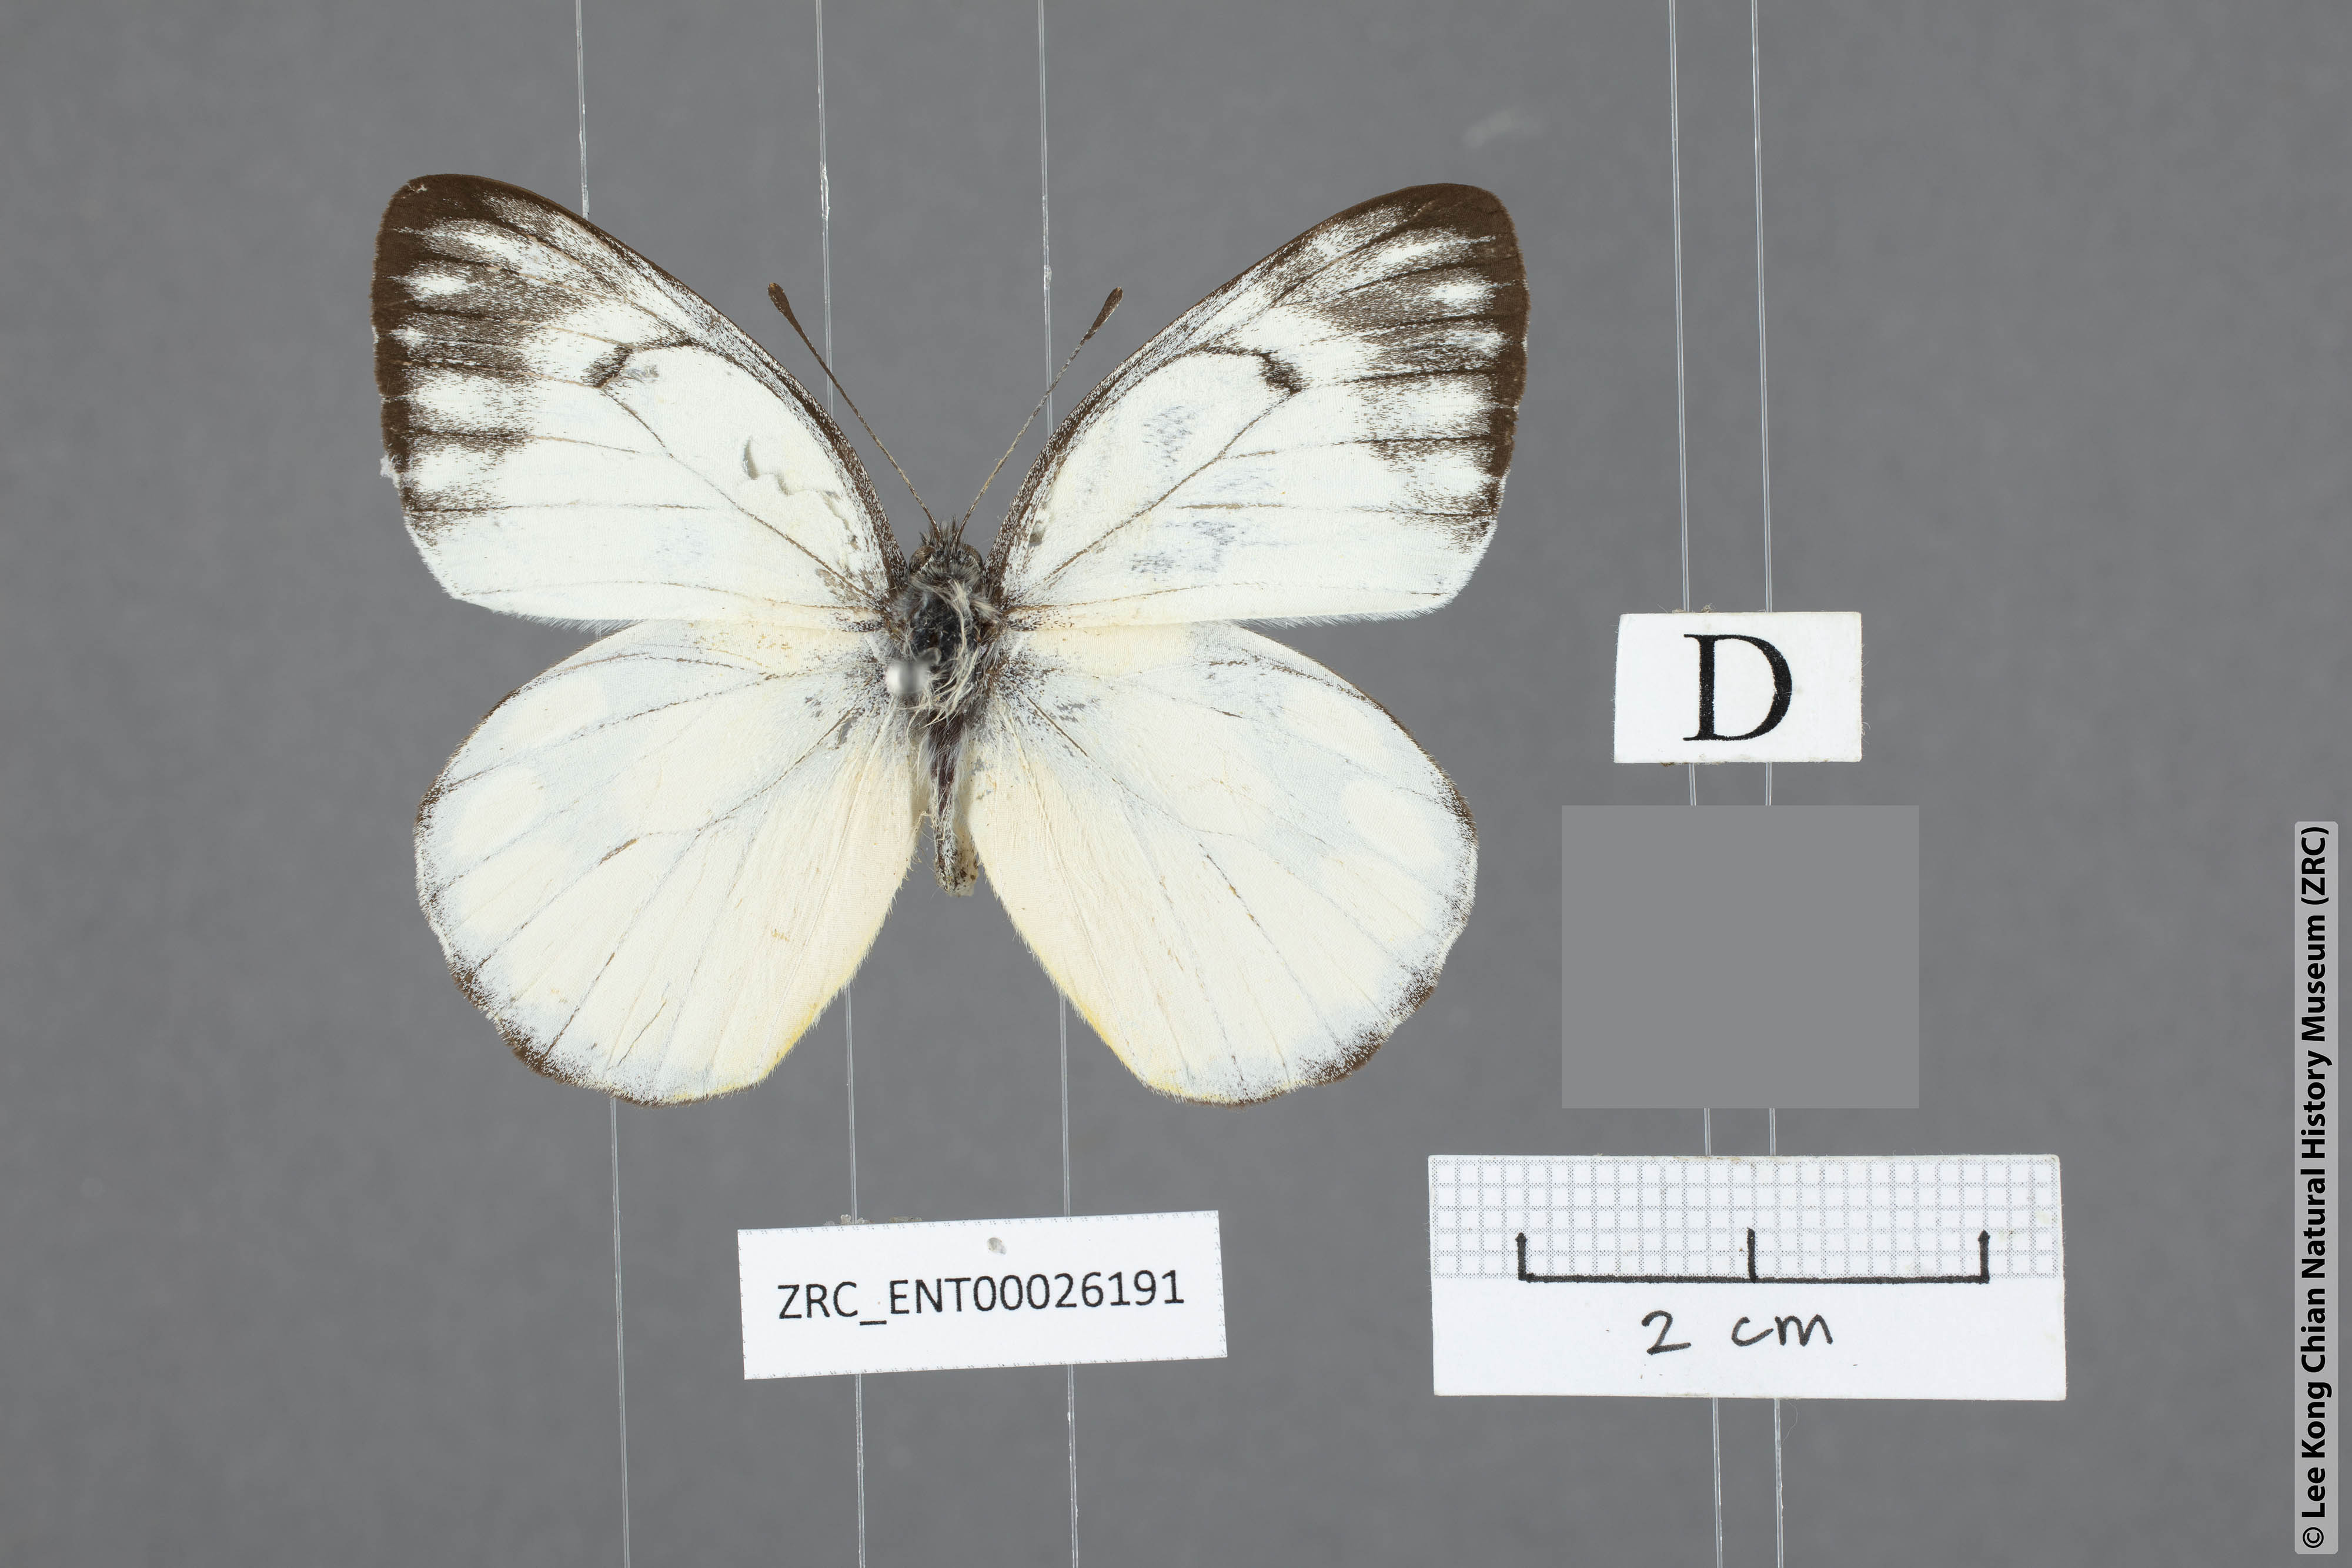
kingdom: Animalia
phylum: Arthropoda
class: Insecta
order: Lepidoptera
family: Pieridae
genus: Delias
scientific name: Delias georgina
